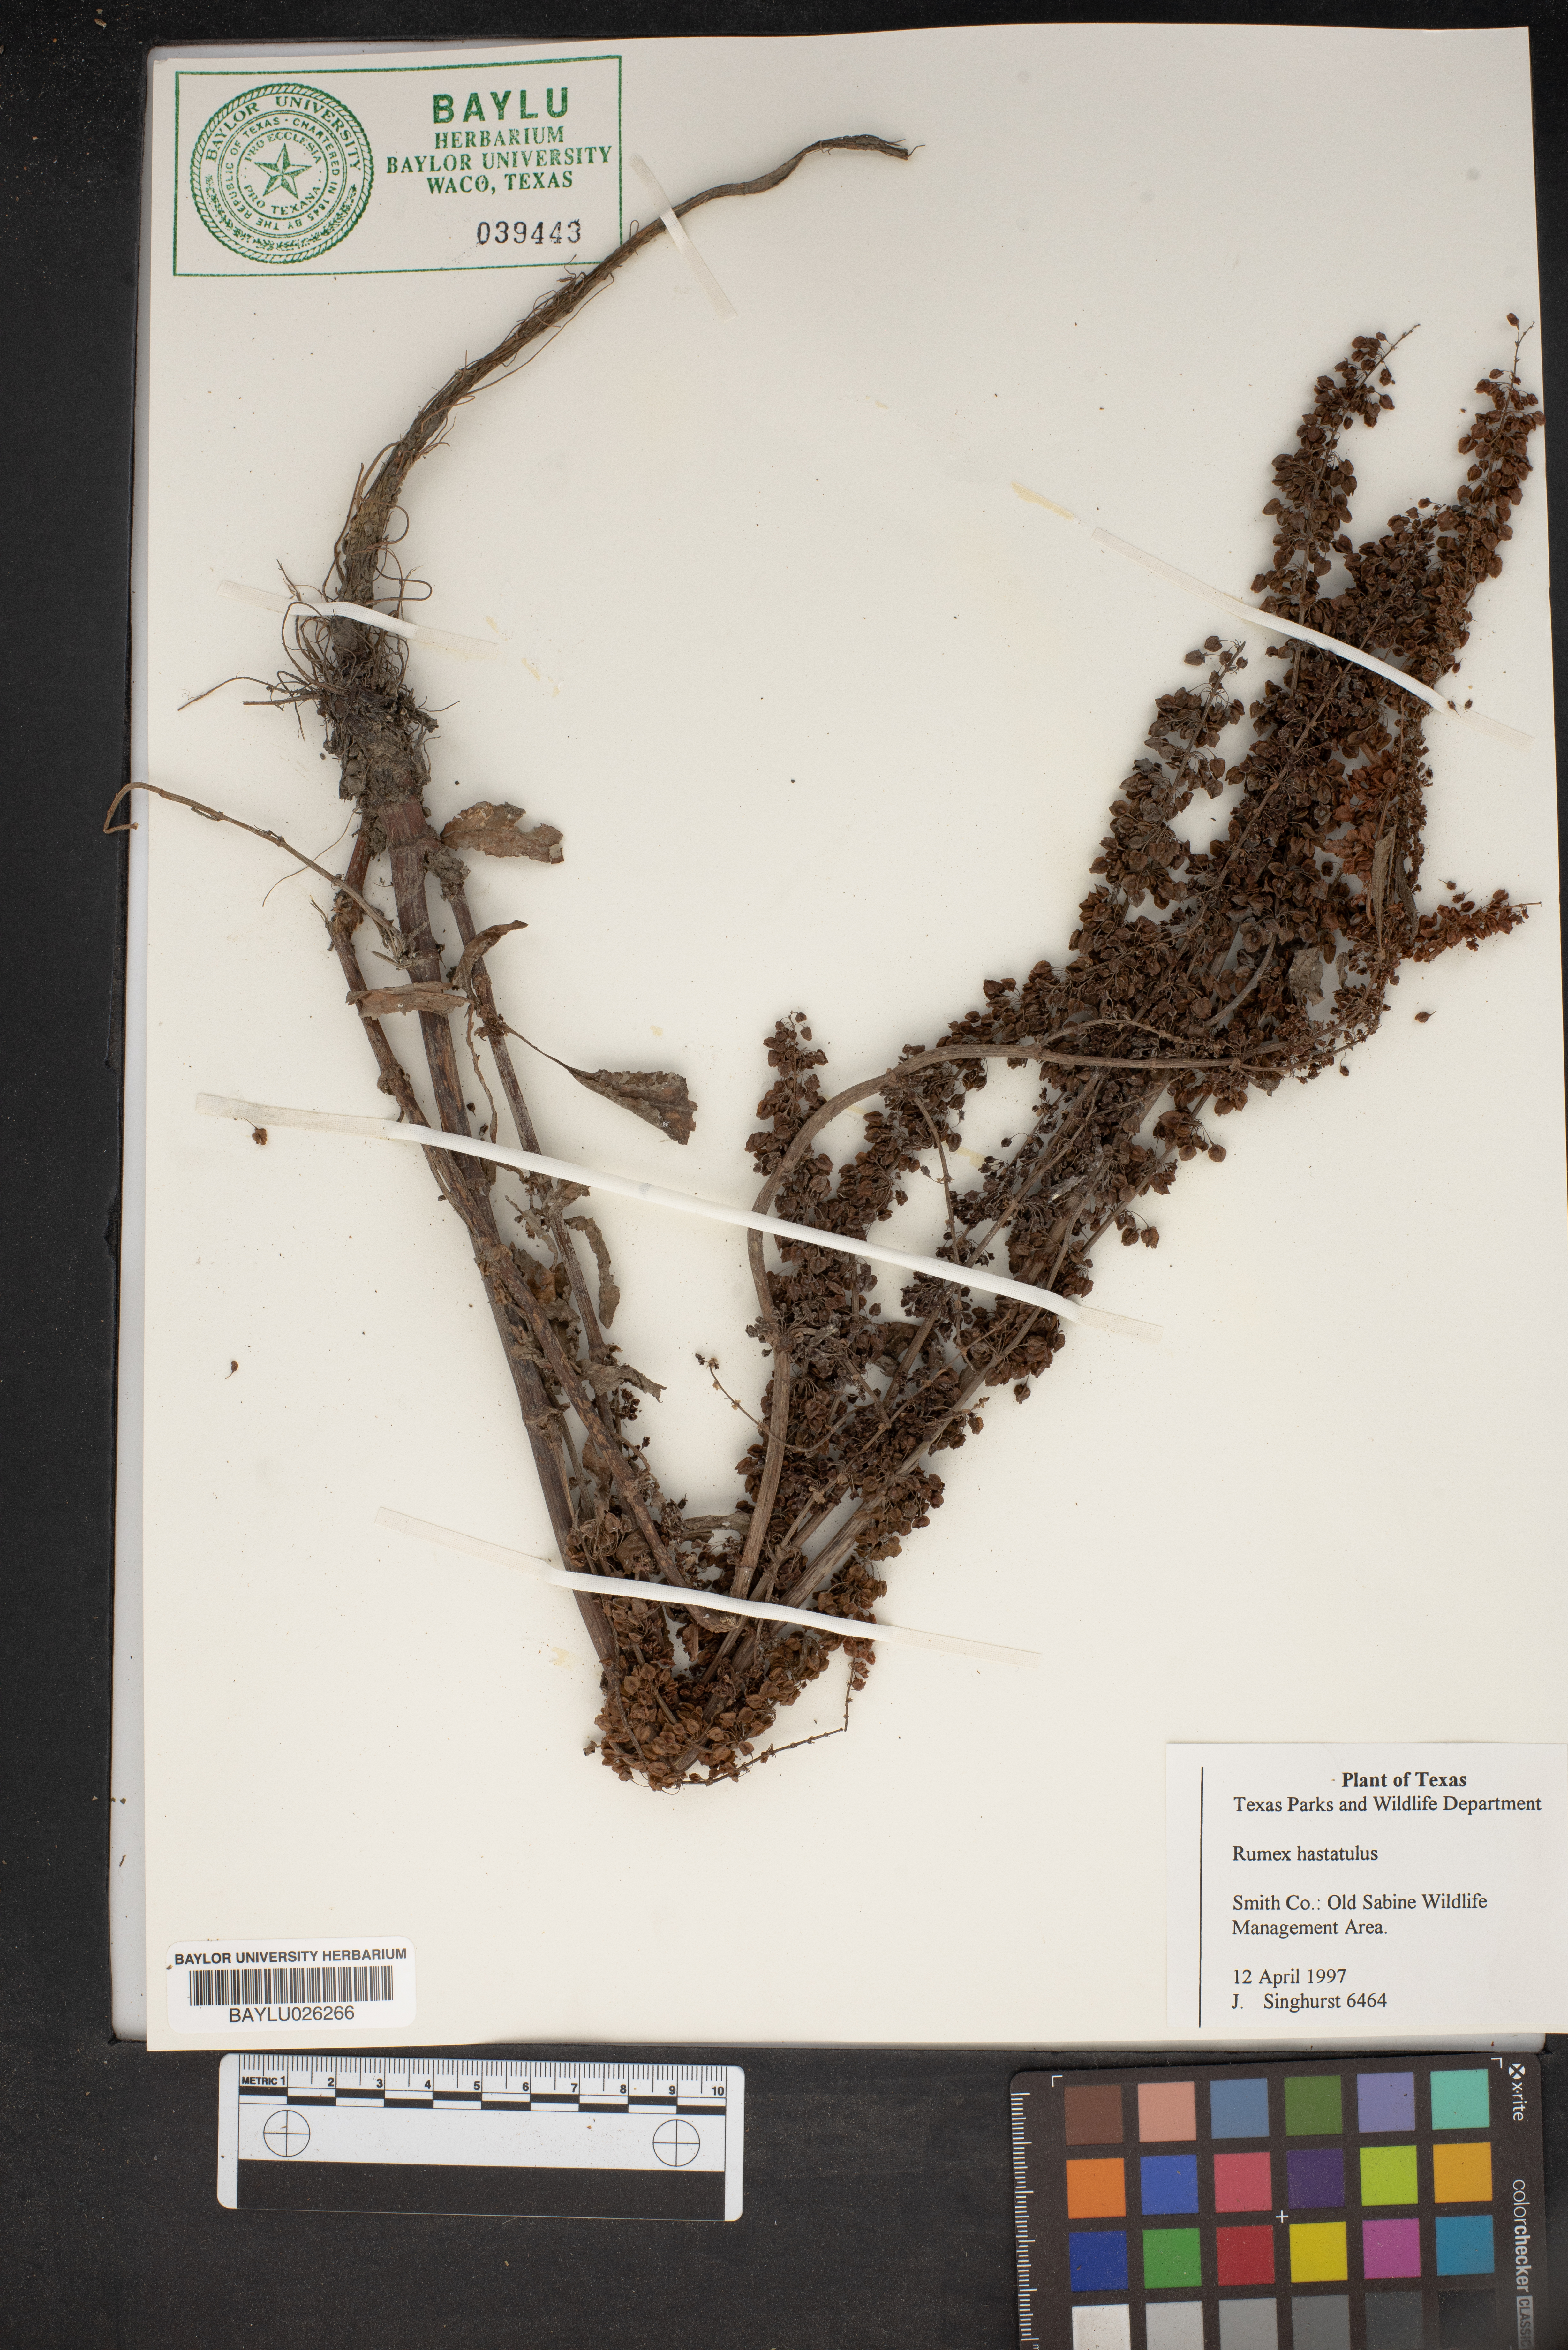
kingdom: Plantae
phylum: Tracheophyta
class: Magnoliopsida
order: Caryophyllales
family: Polygonaceae
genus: Rumex
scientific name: Rumex hastatulus
